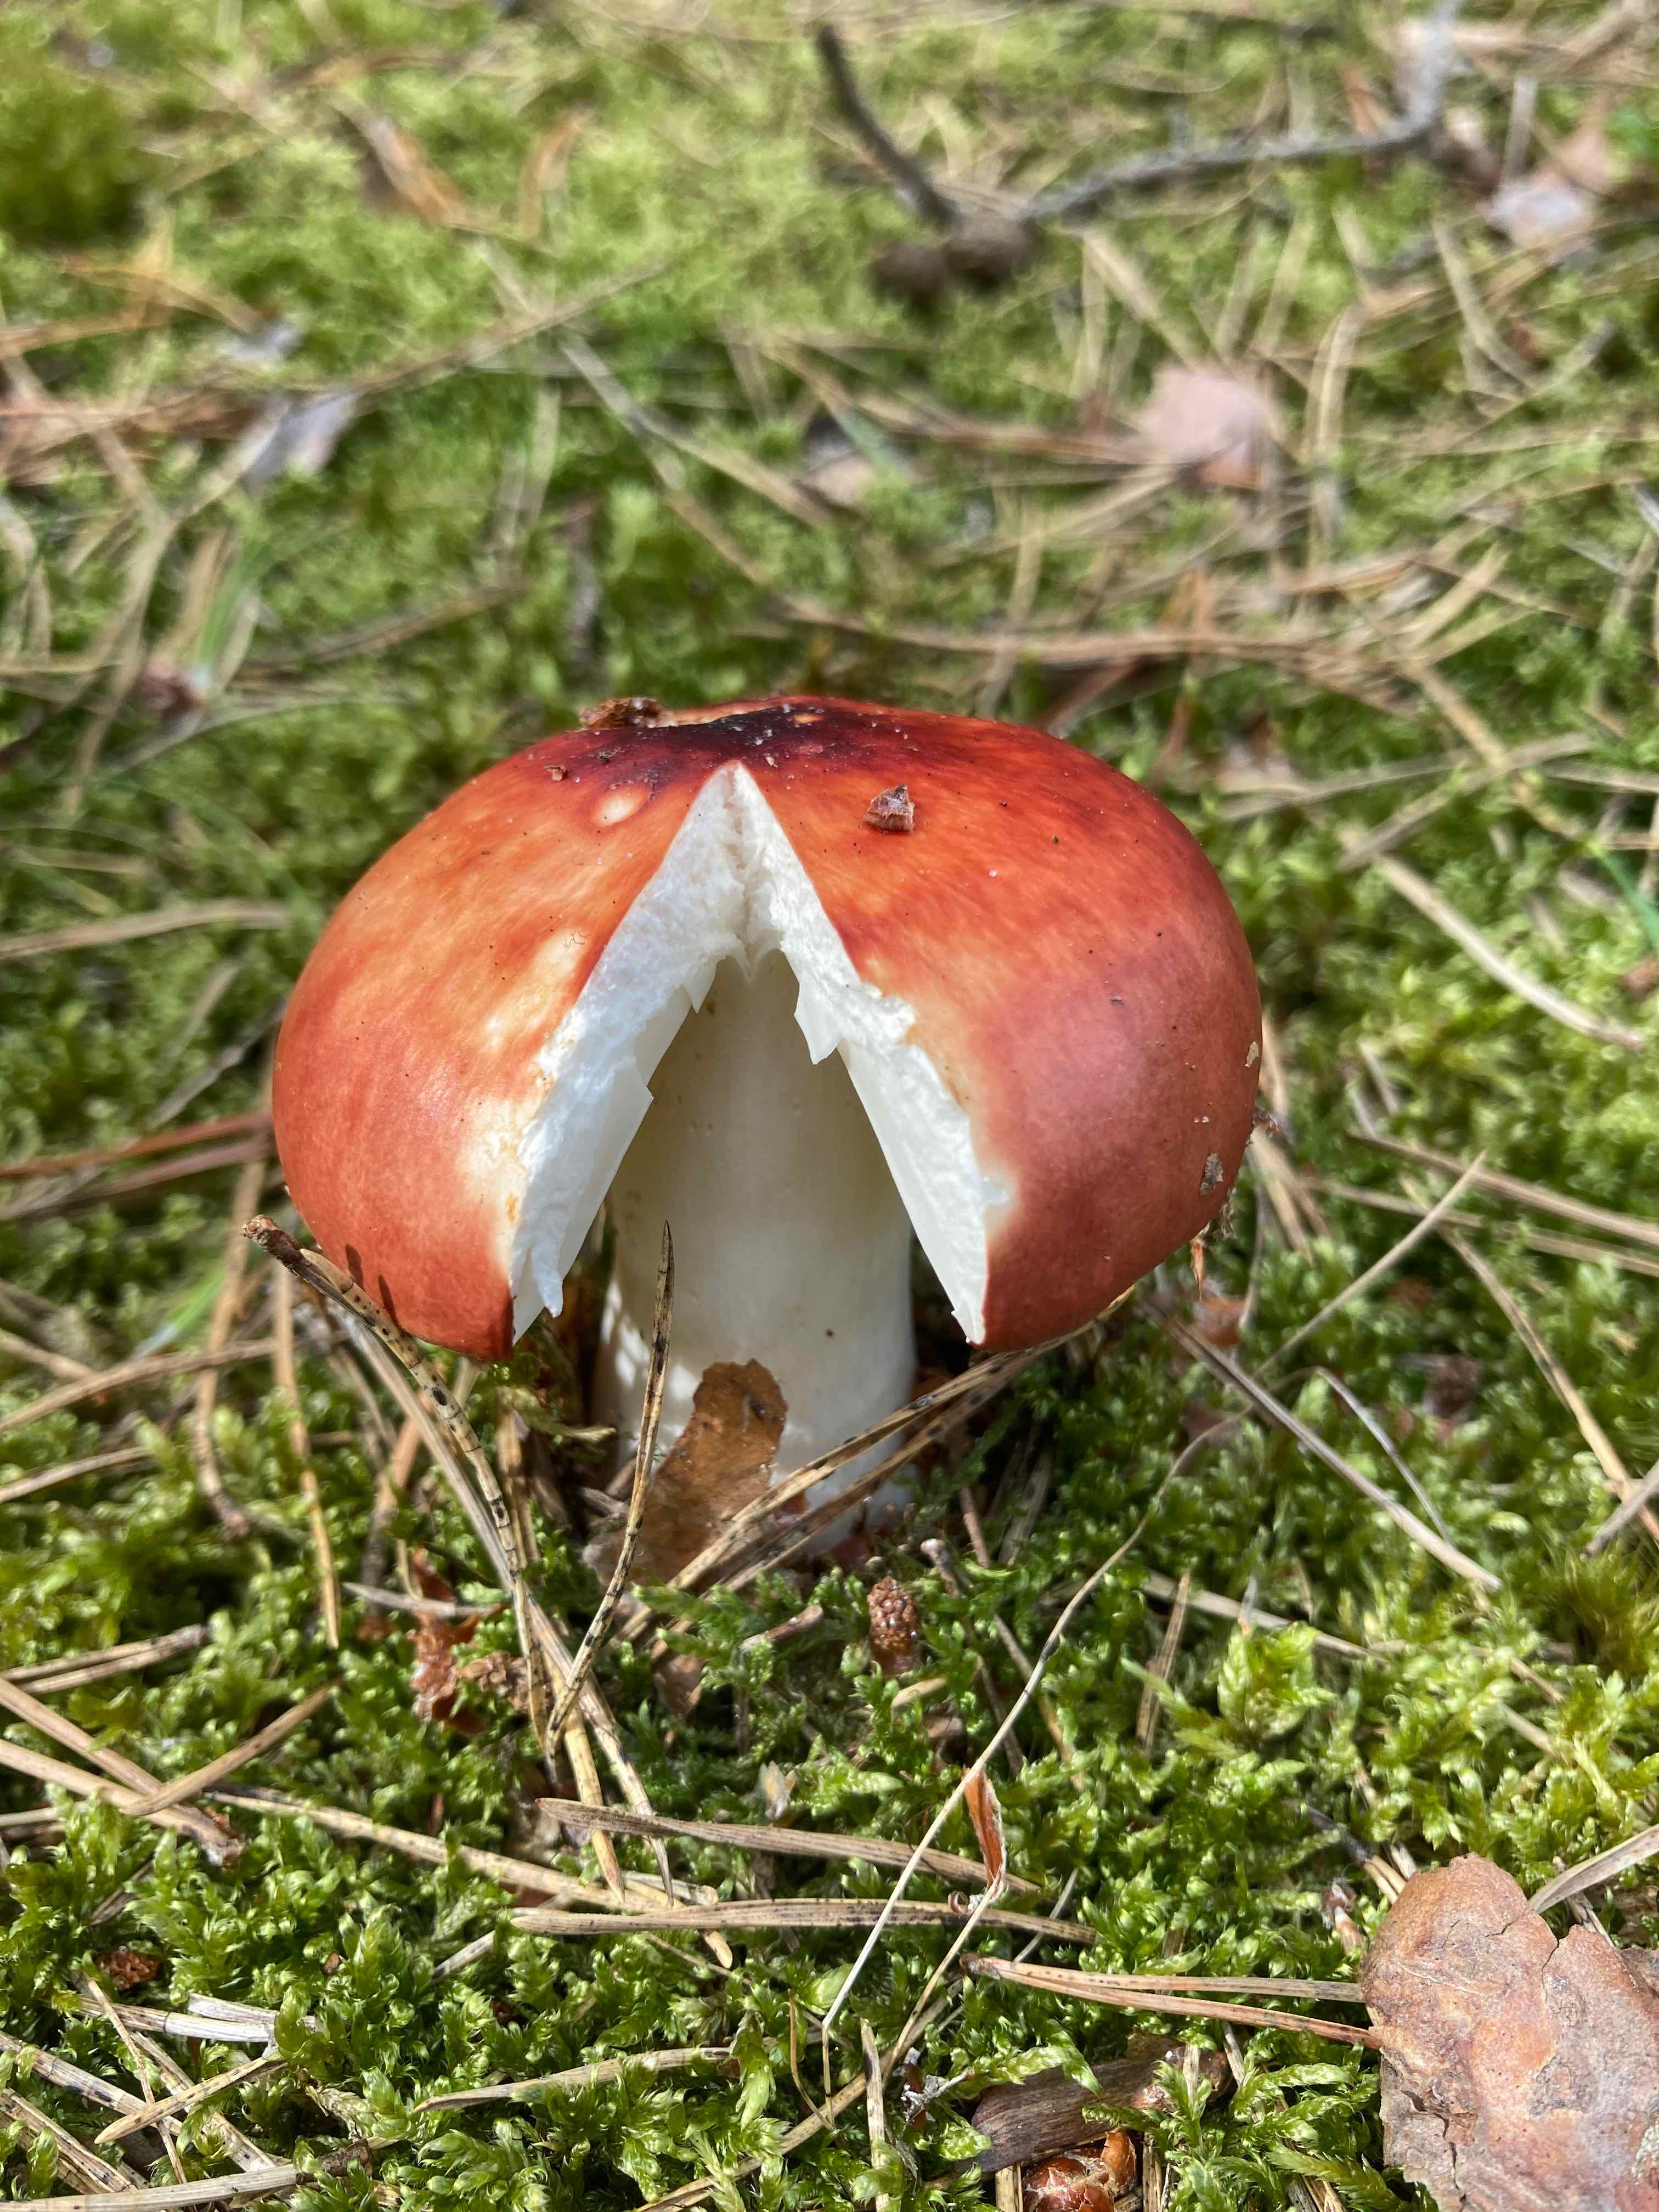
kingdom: Fungi
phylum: Basidiomycota
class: Agaricomycetes
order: Russulales
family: Russulaceae
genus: Russula
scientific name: Russula
